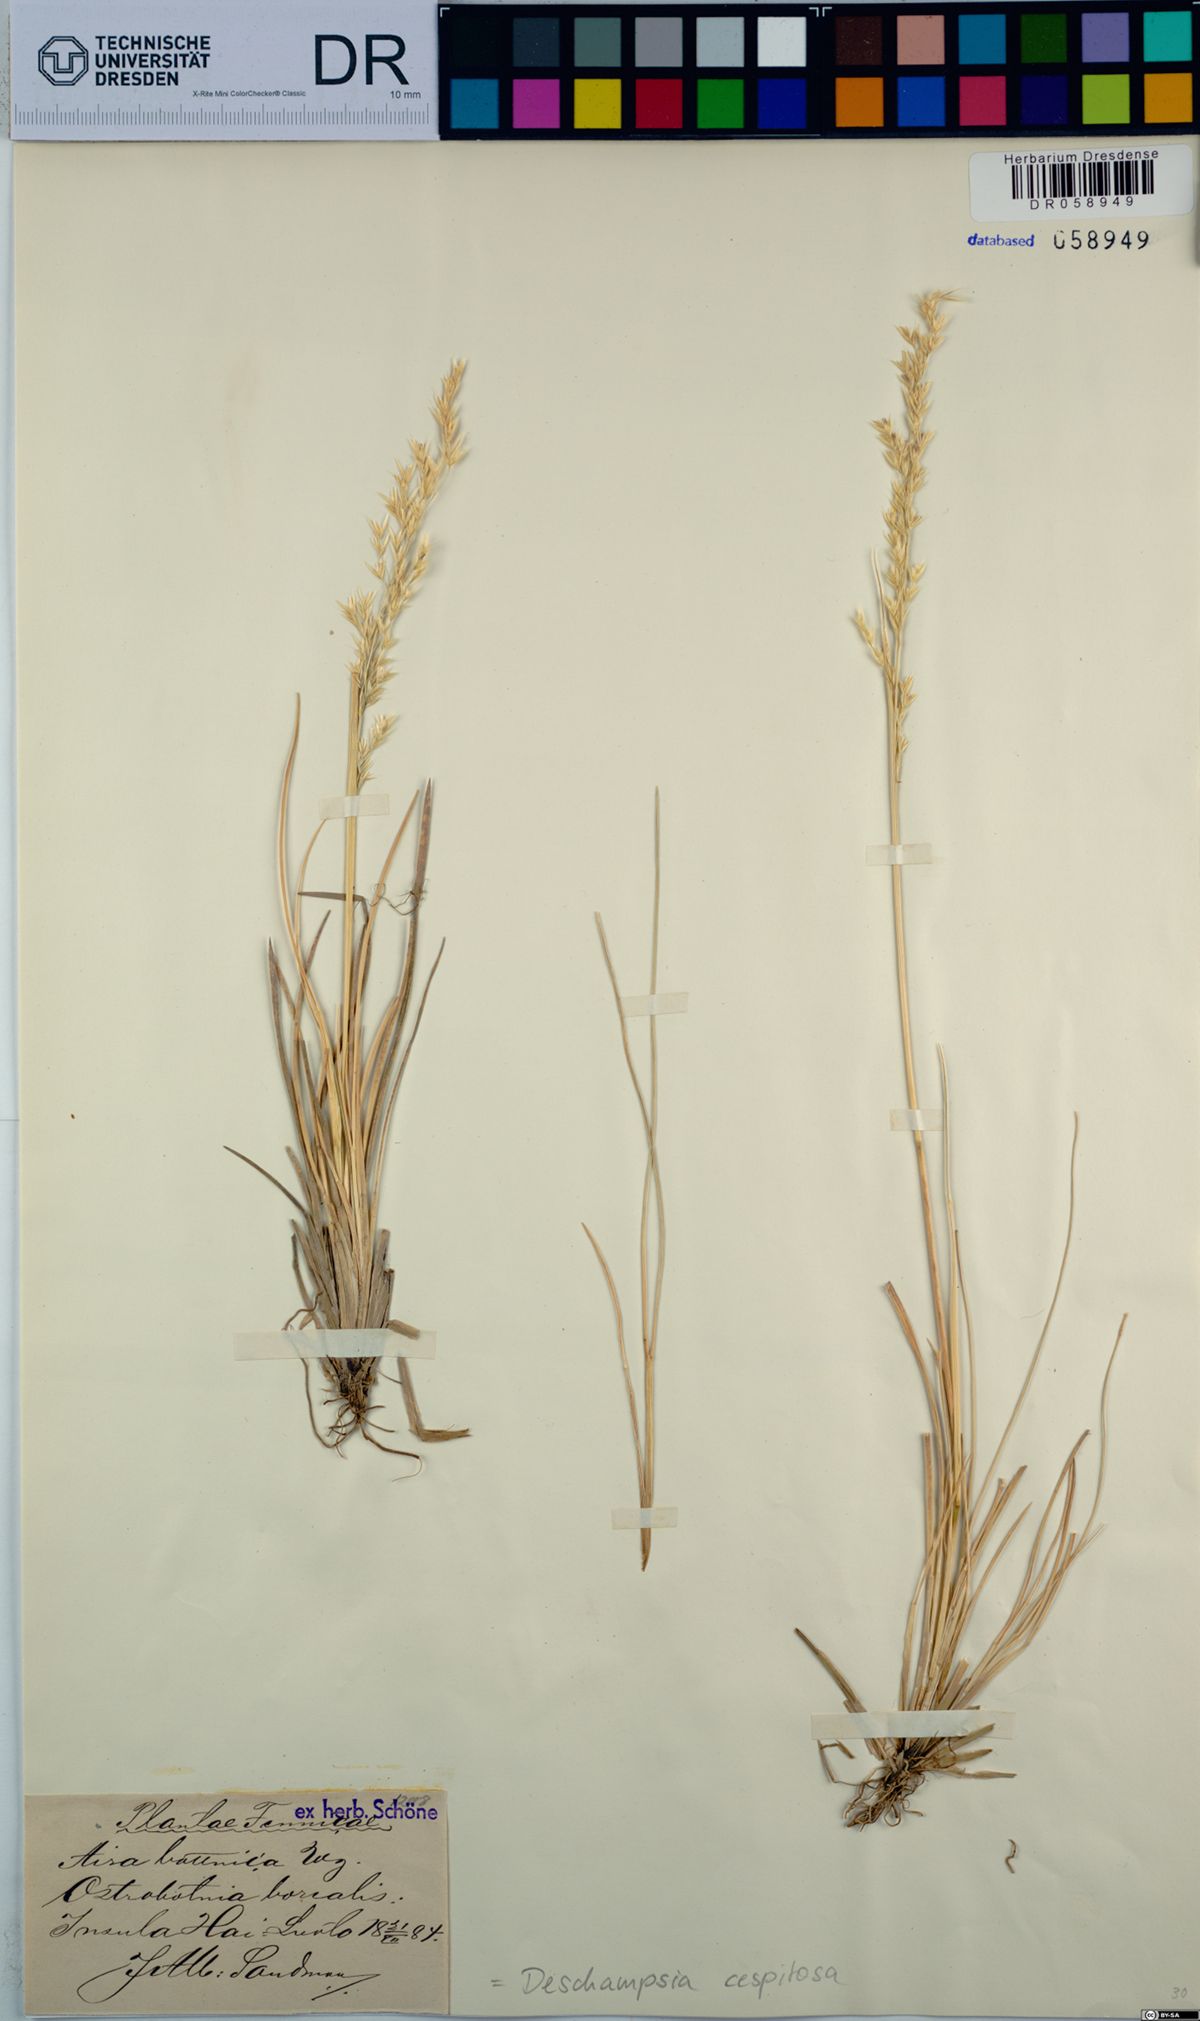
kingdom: Plantae
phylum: Tracheophyta
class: Liliopsida
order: Poales
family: Poaceae
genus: Deschampsia
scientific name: Deschampsia cespitosa
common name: Tufted hair-grass
